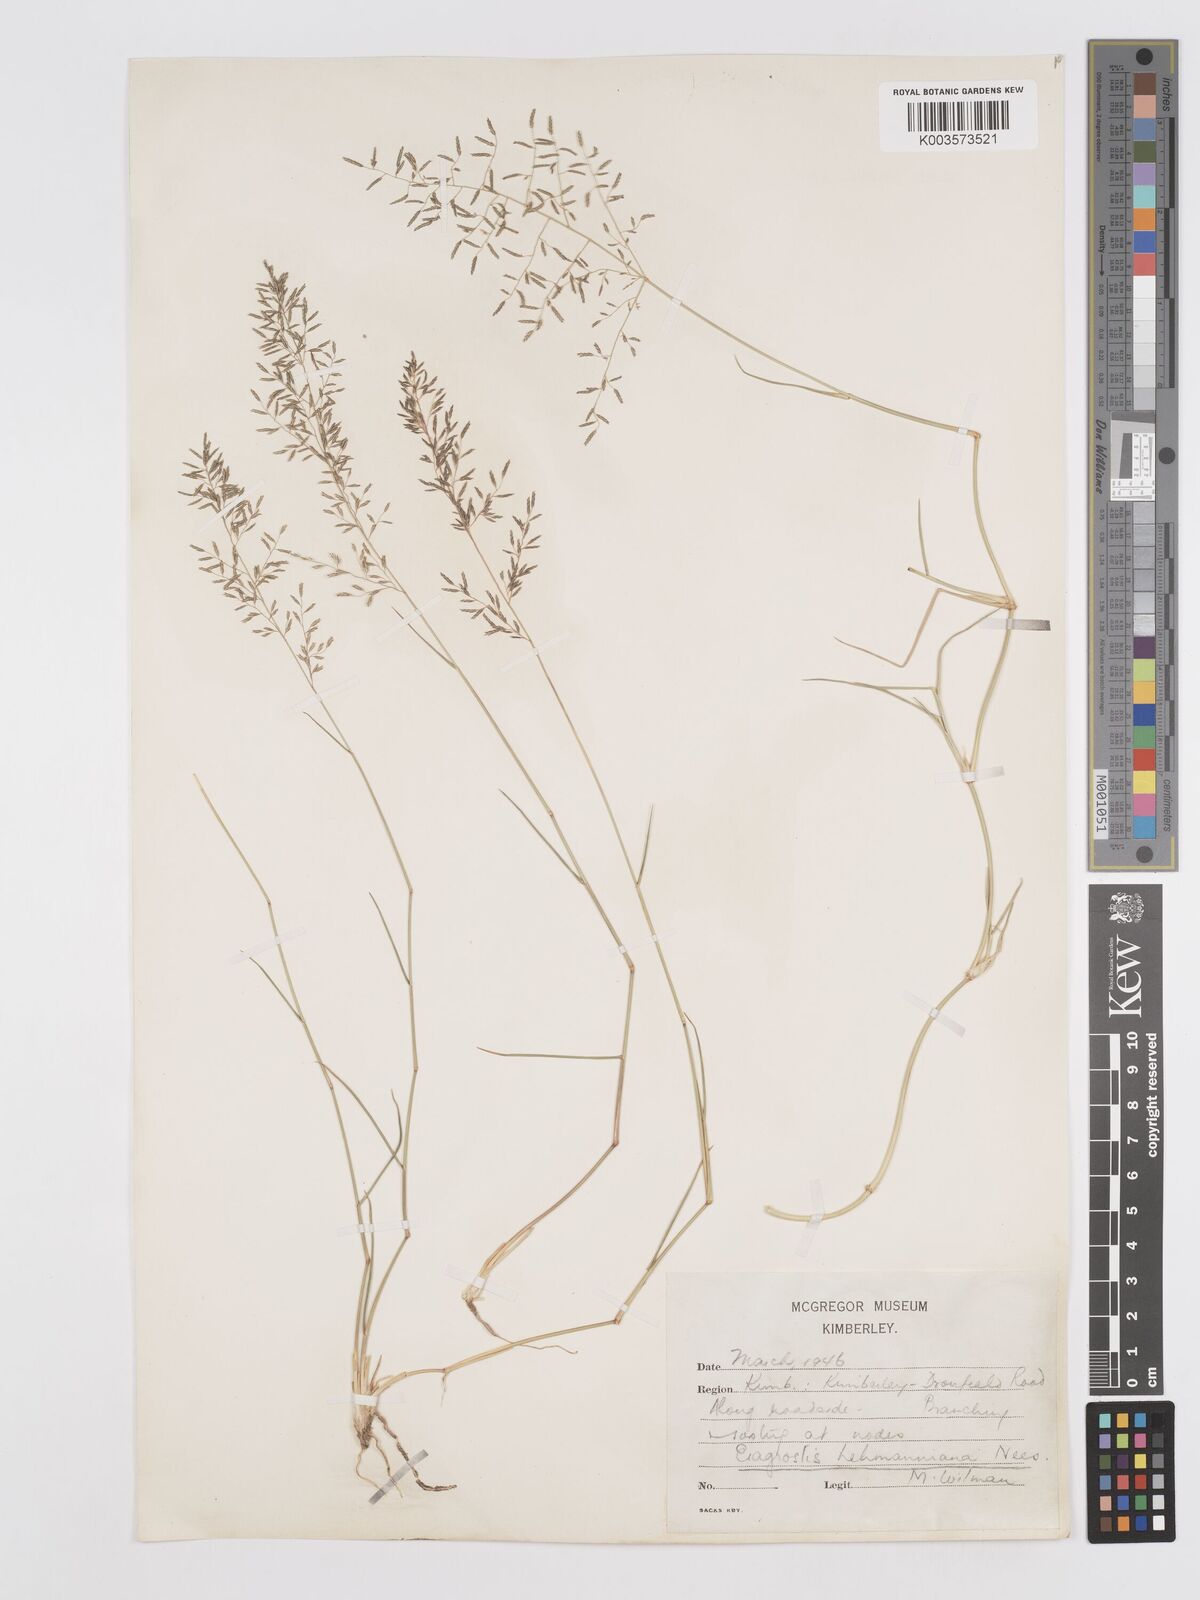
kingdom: Plantae
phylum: Tracheophyta
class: Liliopsida
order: Poales
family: Poaceae
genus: Eragrostis
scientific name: Eragrostis lehmanniana
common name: Lehmann lovegrass
